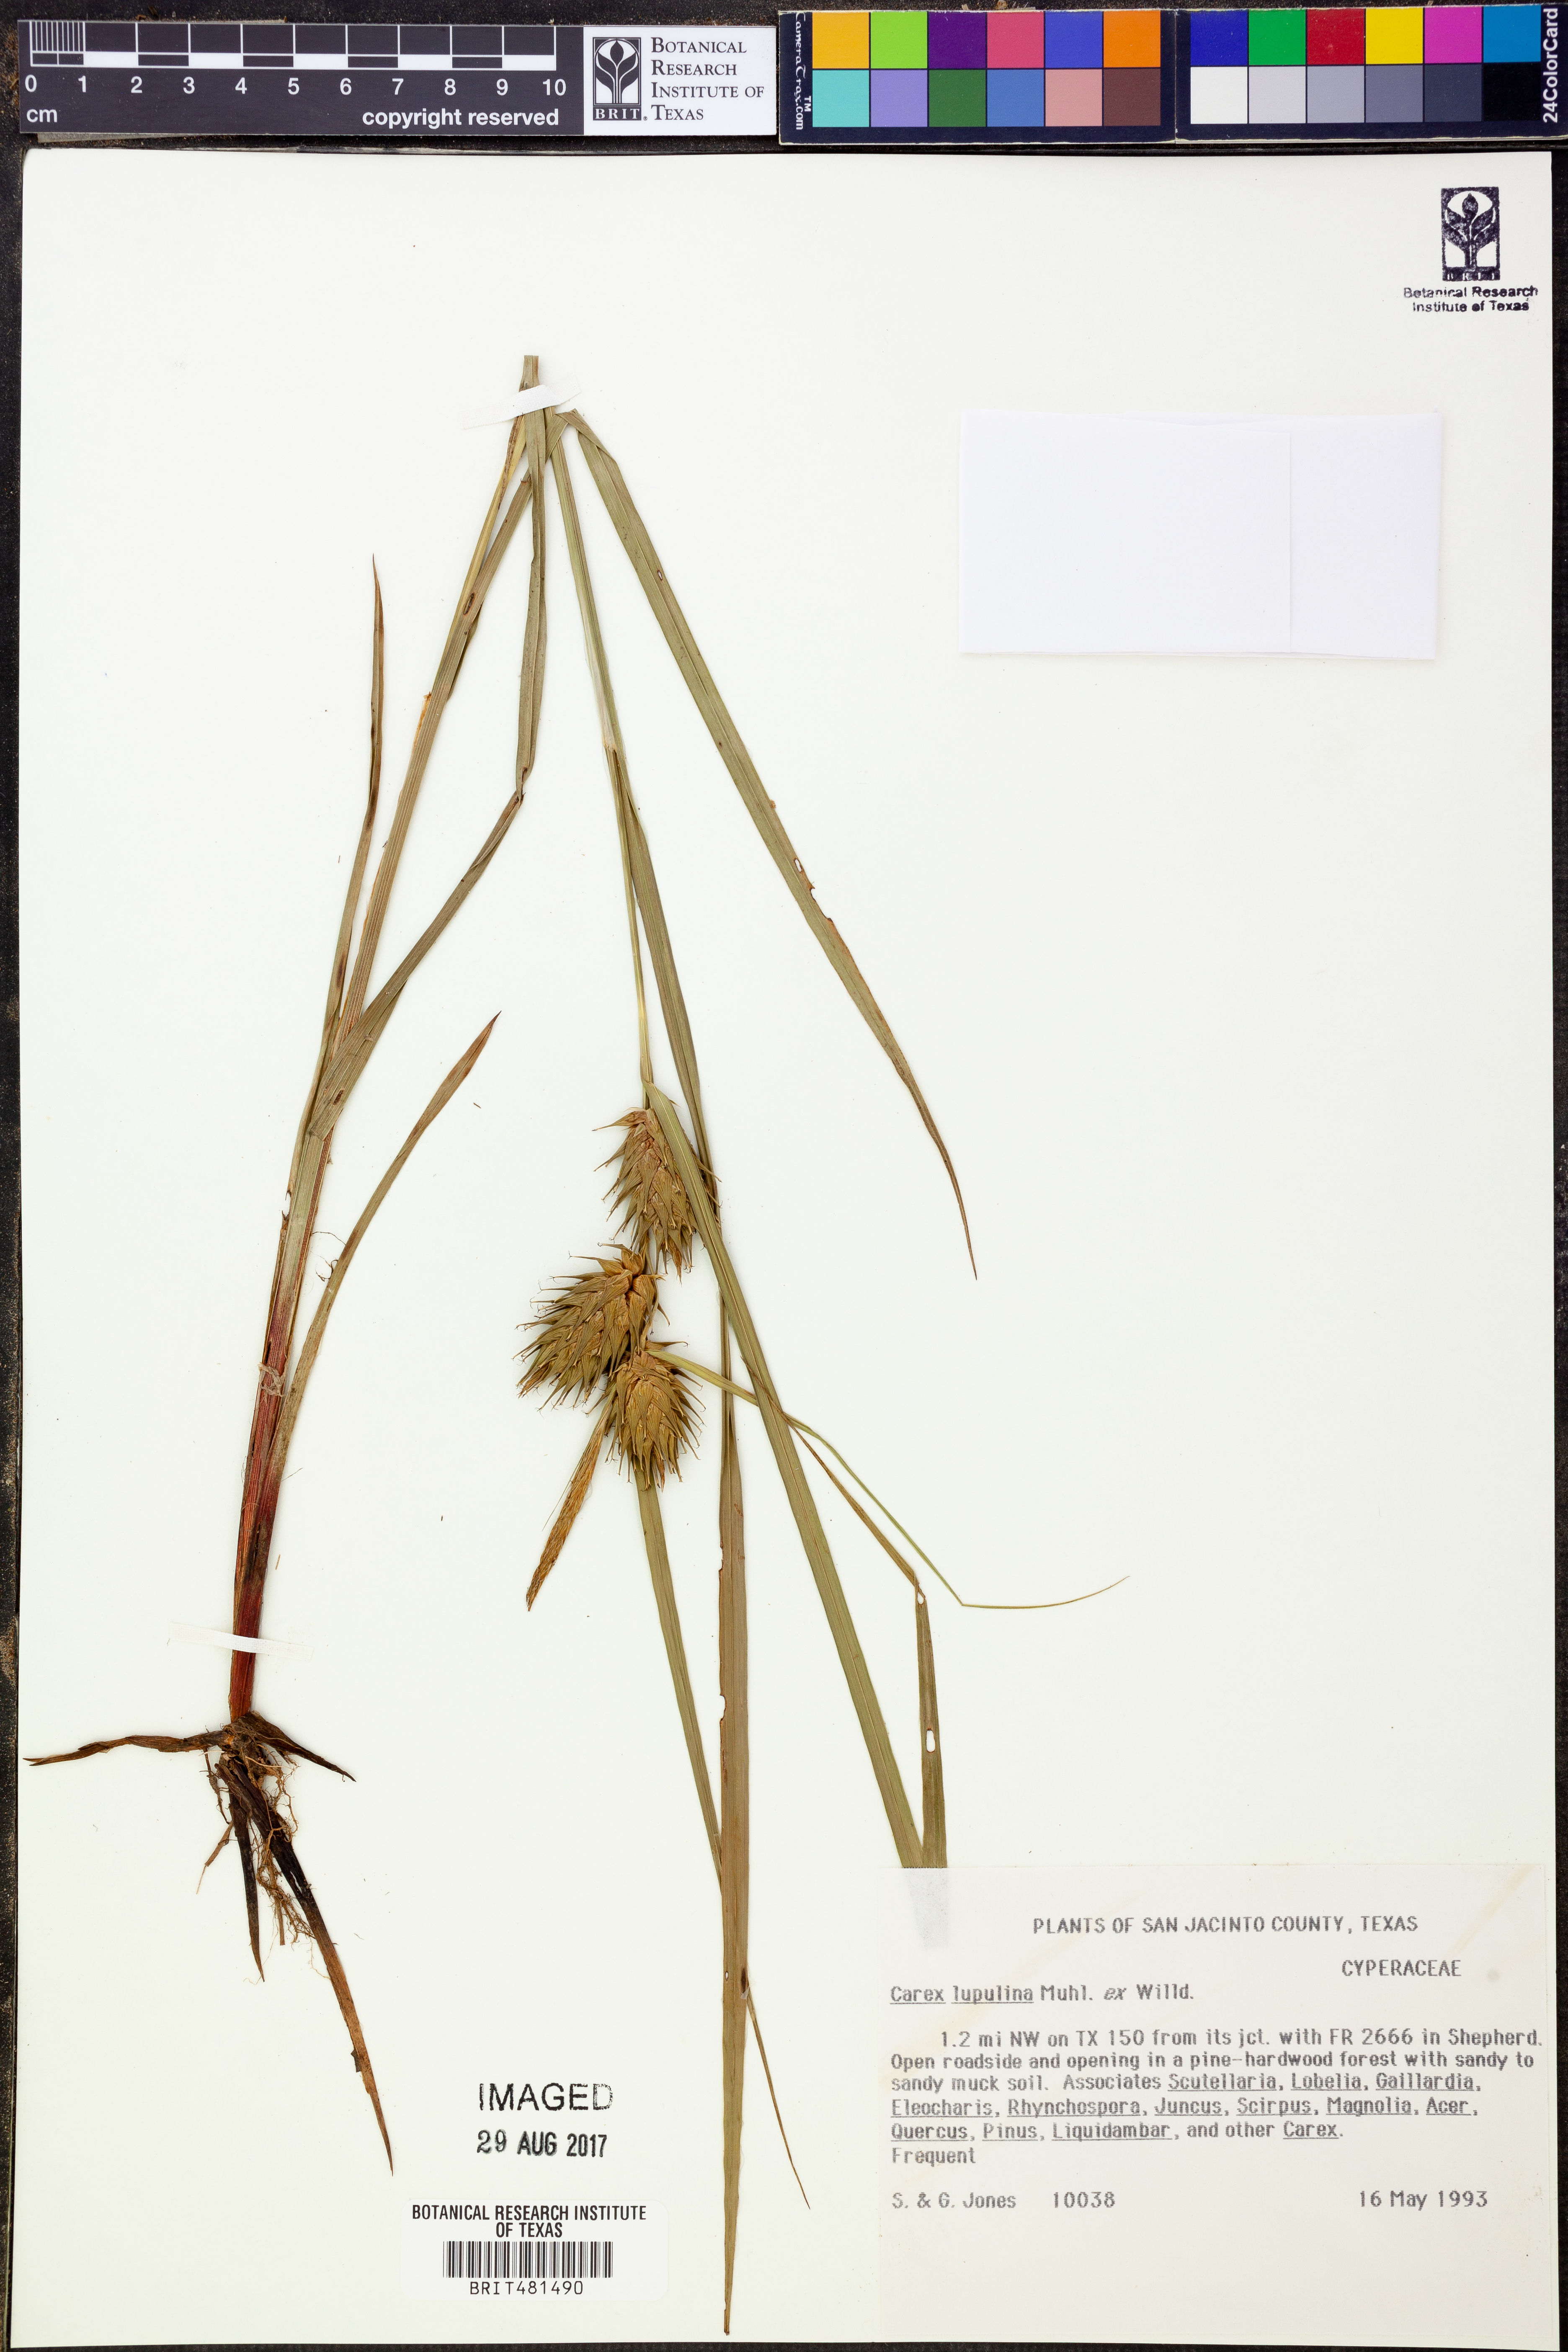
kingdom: Plantae
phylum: Tracheophyta
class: Liliopsida
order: Poales
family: Cyperaceae
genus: Carex
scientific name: Carex lupulina
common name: Hop sedge
